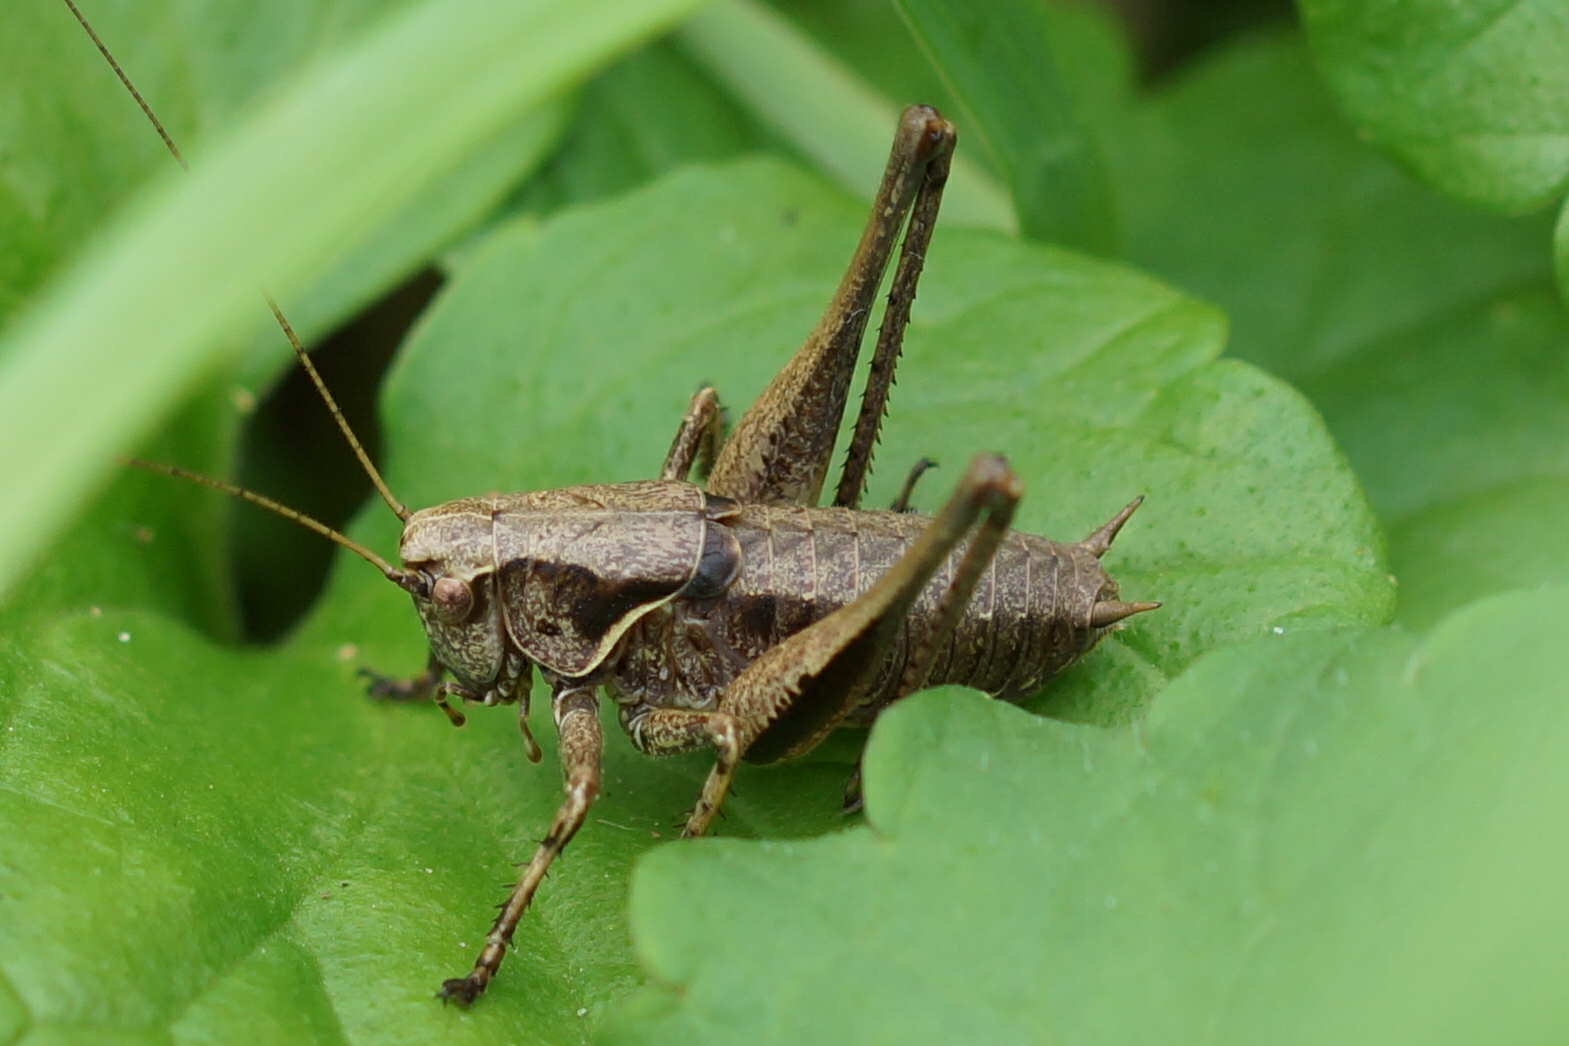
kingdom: Animalia
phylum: Arthropoda
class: Insecta
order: Orthoptera
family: Tettigoniidae
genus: Pholidoptera
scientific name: Pholidoptera griseoaptera
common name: Buskgræshoppe
